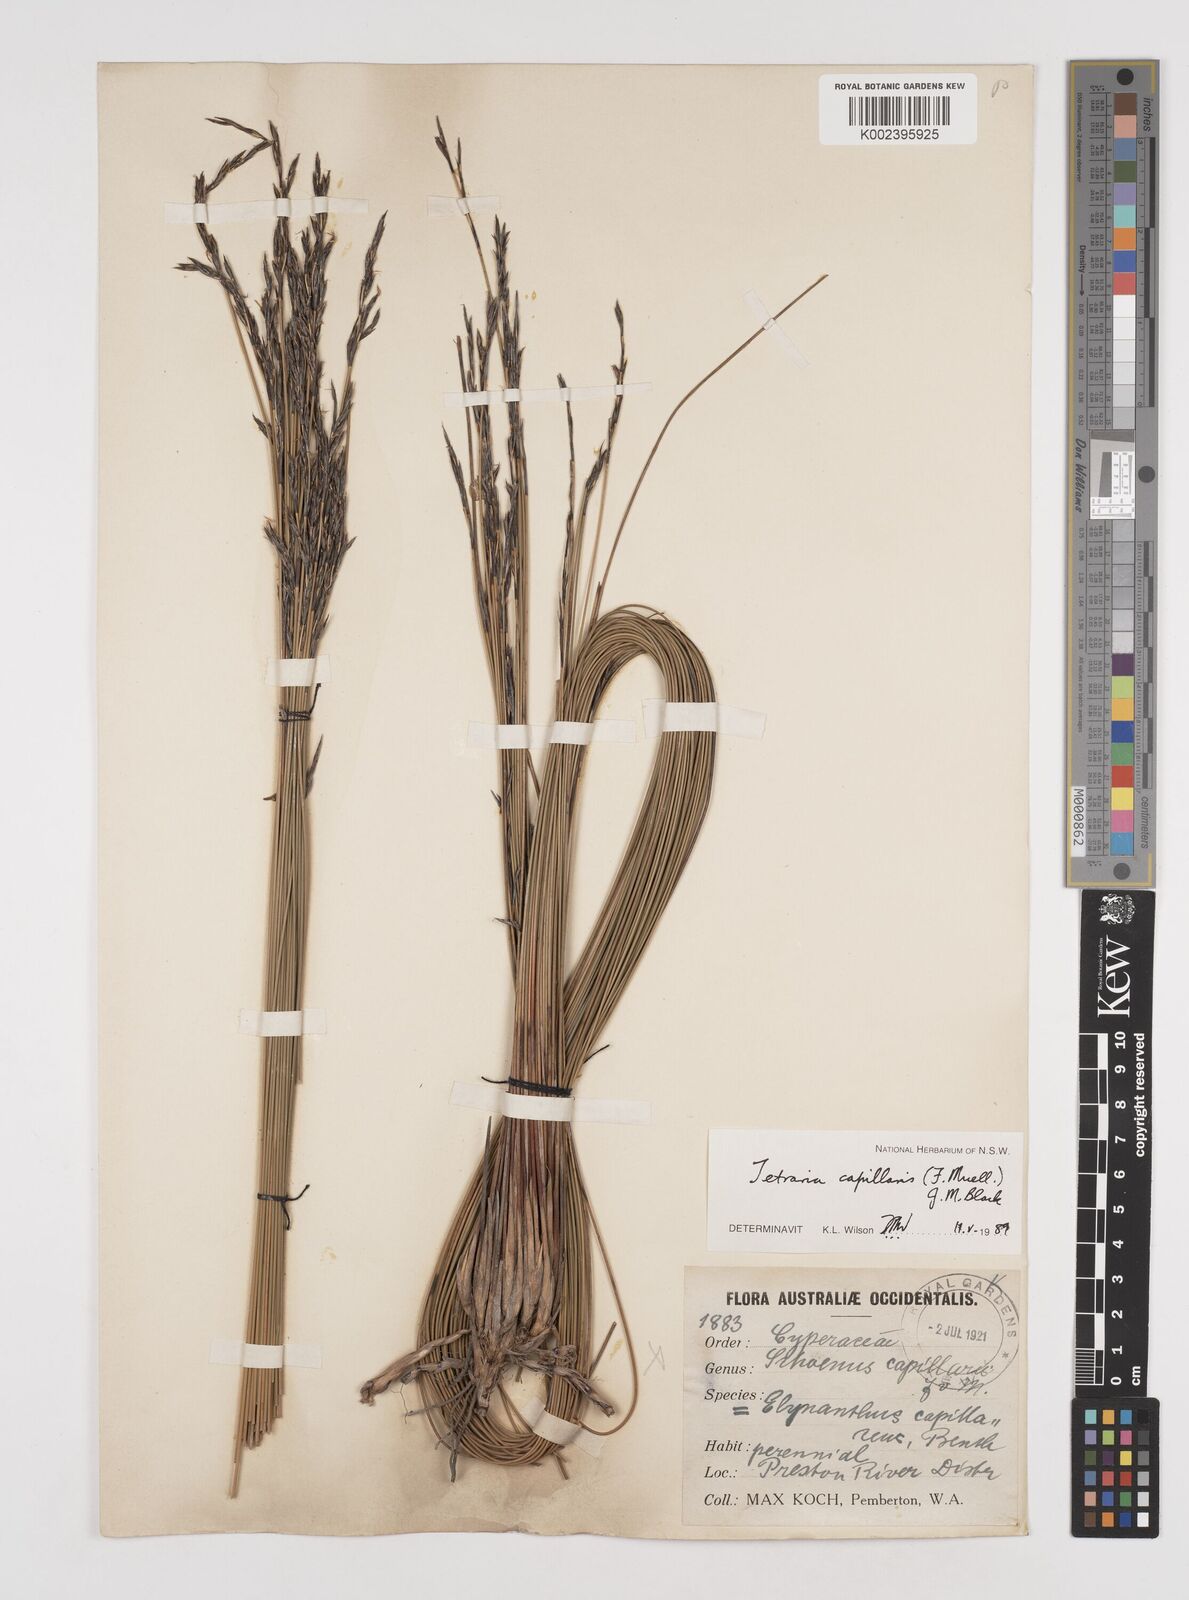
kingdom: Plantae
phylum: Tracheophyta
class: Liliopsida
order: Poales
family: Cyperaceae
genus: Tetraria
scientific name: Tetraria capillaris
